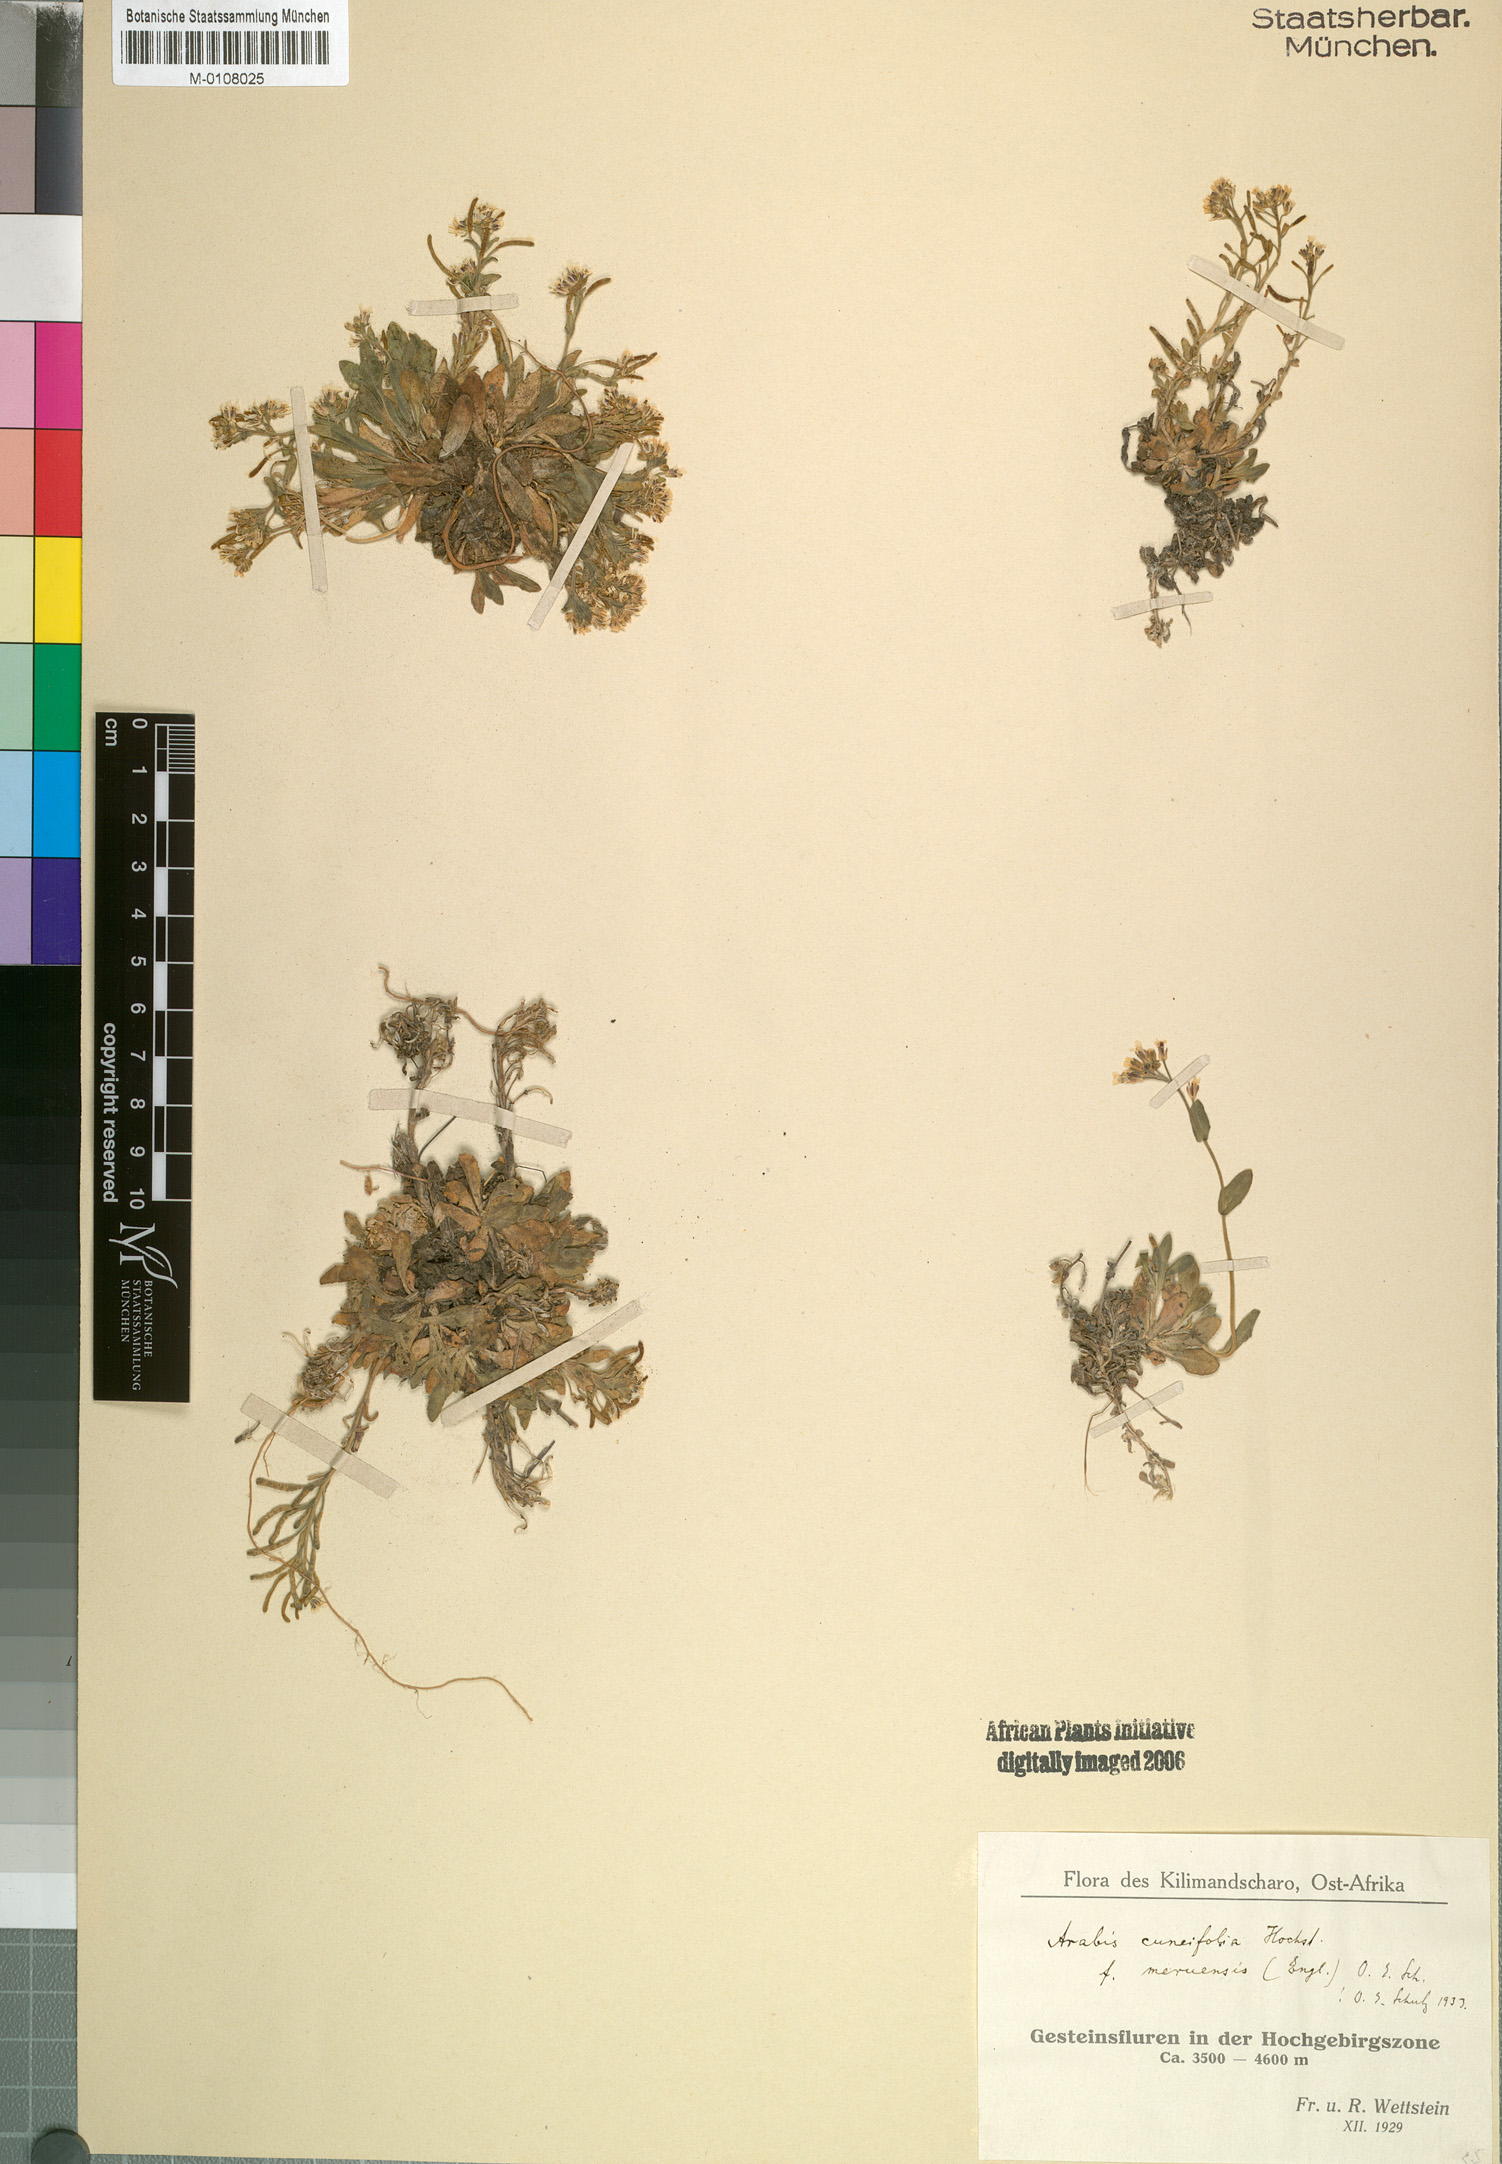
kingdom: Plantae
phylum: Tracheophyta
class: Magnoliopsida
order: Brassicales
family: Brassicaceae
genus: Arabis
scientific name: Arabis alpina
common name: Alpine rock-cress
